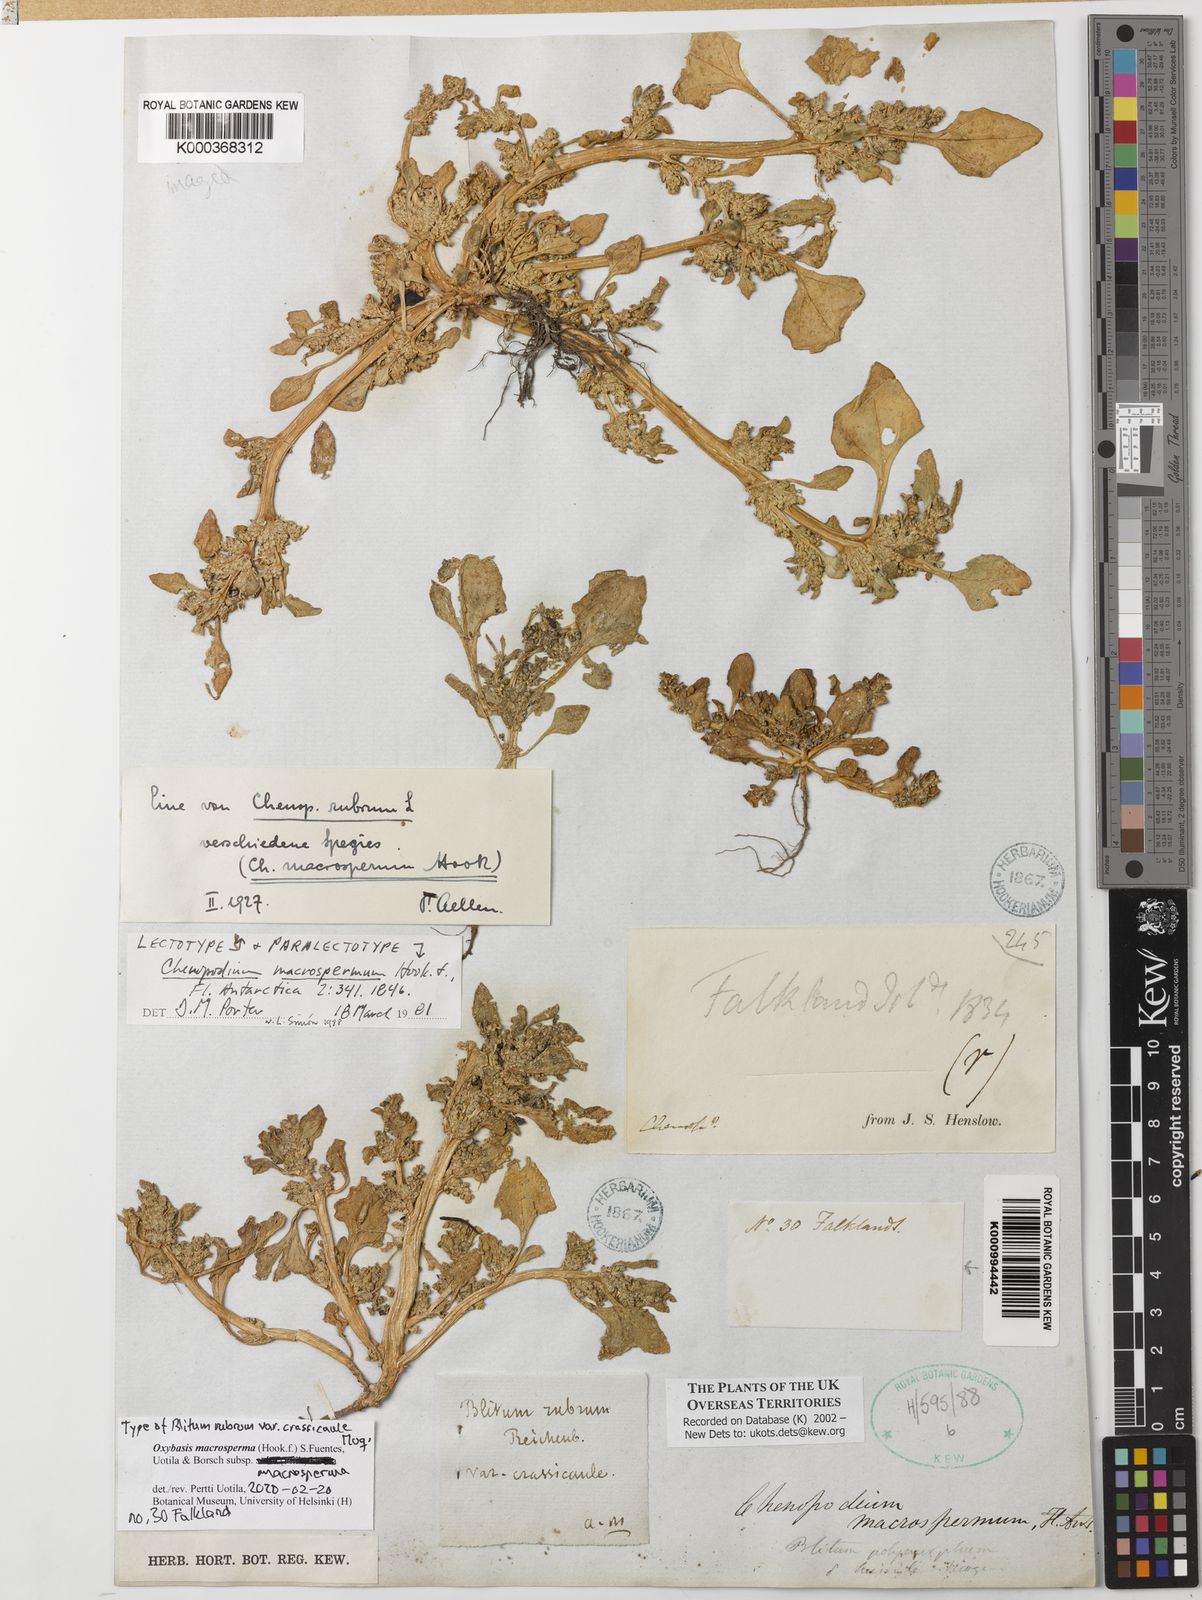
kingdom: Plantae
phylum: Tracheophyta
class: Magnoliopsida
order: Caryophyllales
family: Amaranthaceae
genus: Oxybasis
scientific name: Oxybasis macrosperma
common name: Large-seed goosefoot
